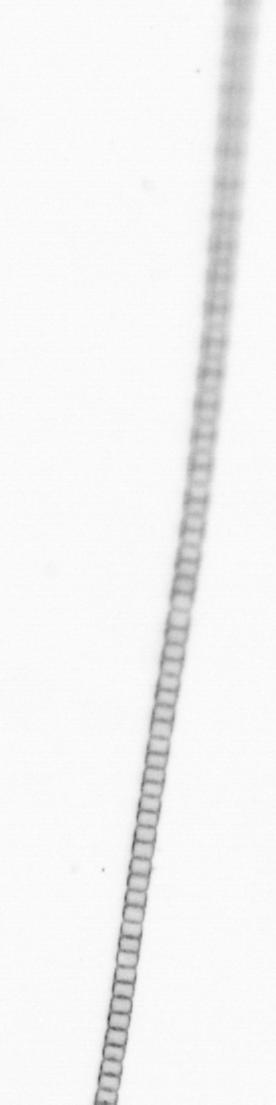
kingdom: Chromista
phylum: Ochrophyta
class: Bacillariophyceae
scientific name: Bacillariophyceae
